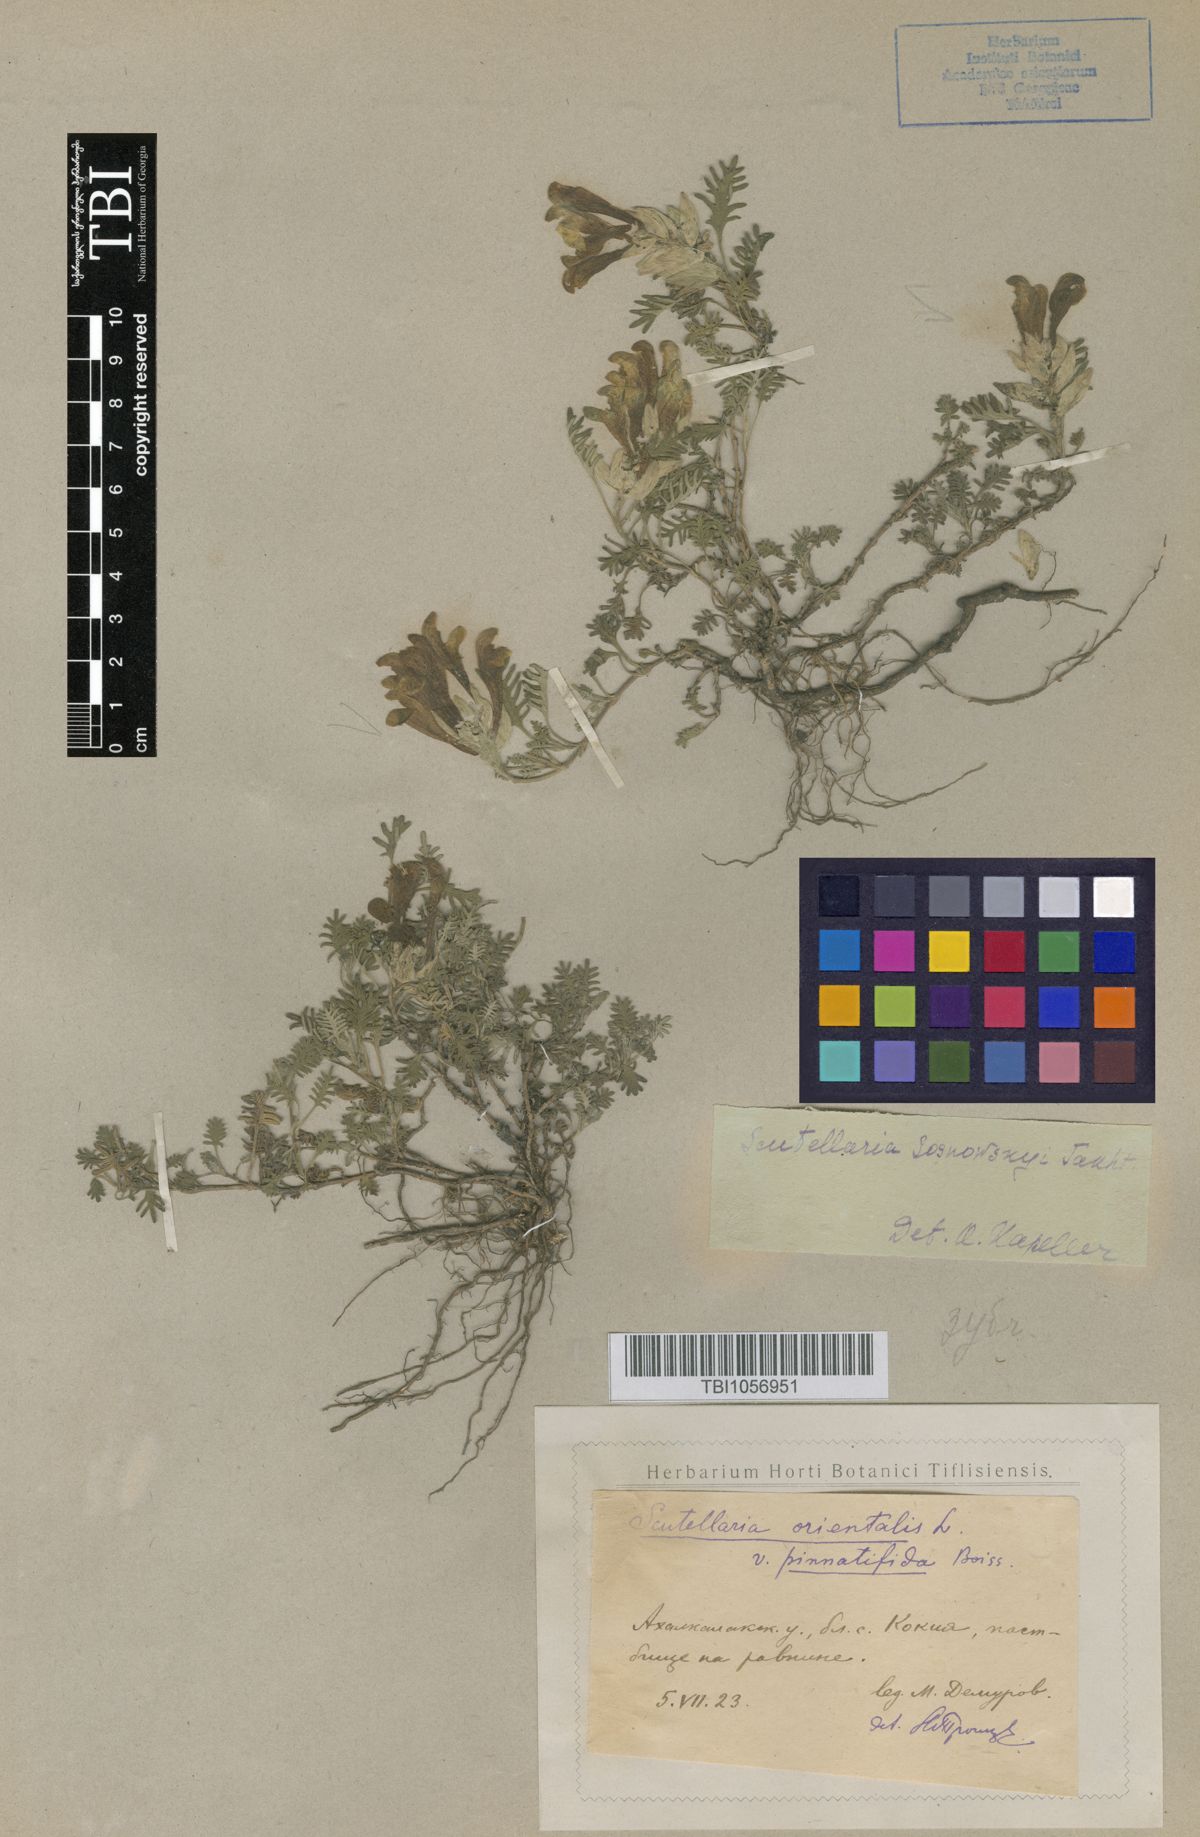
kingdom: Plantae
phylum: Tracheophyta
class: Magnoliopsida
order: Lamiales
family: Lamiaceae
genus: Scutellaria
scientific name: Scutellaria sosnowskyi
